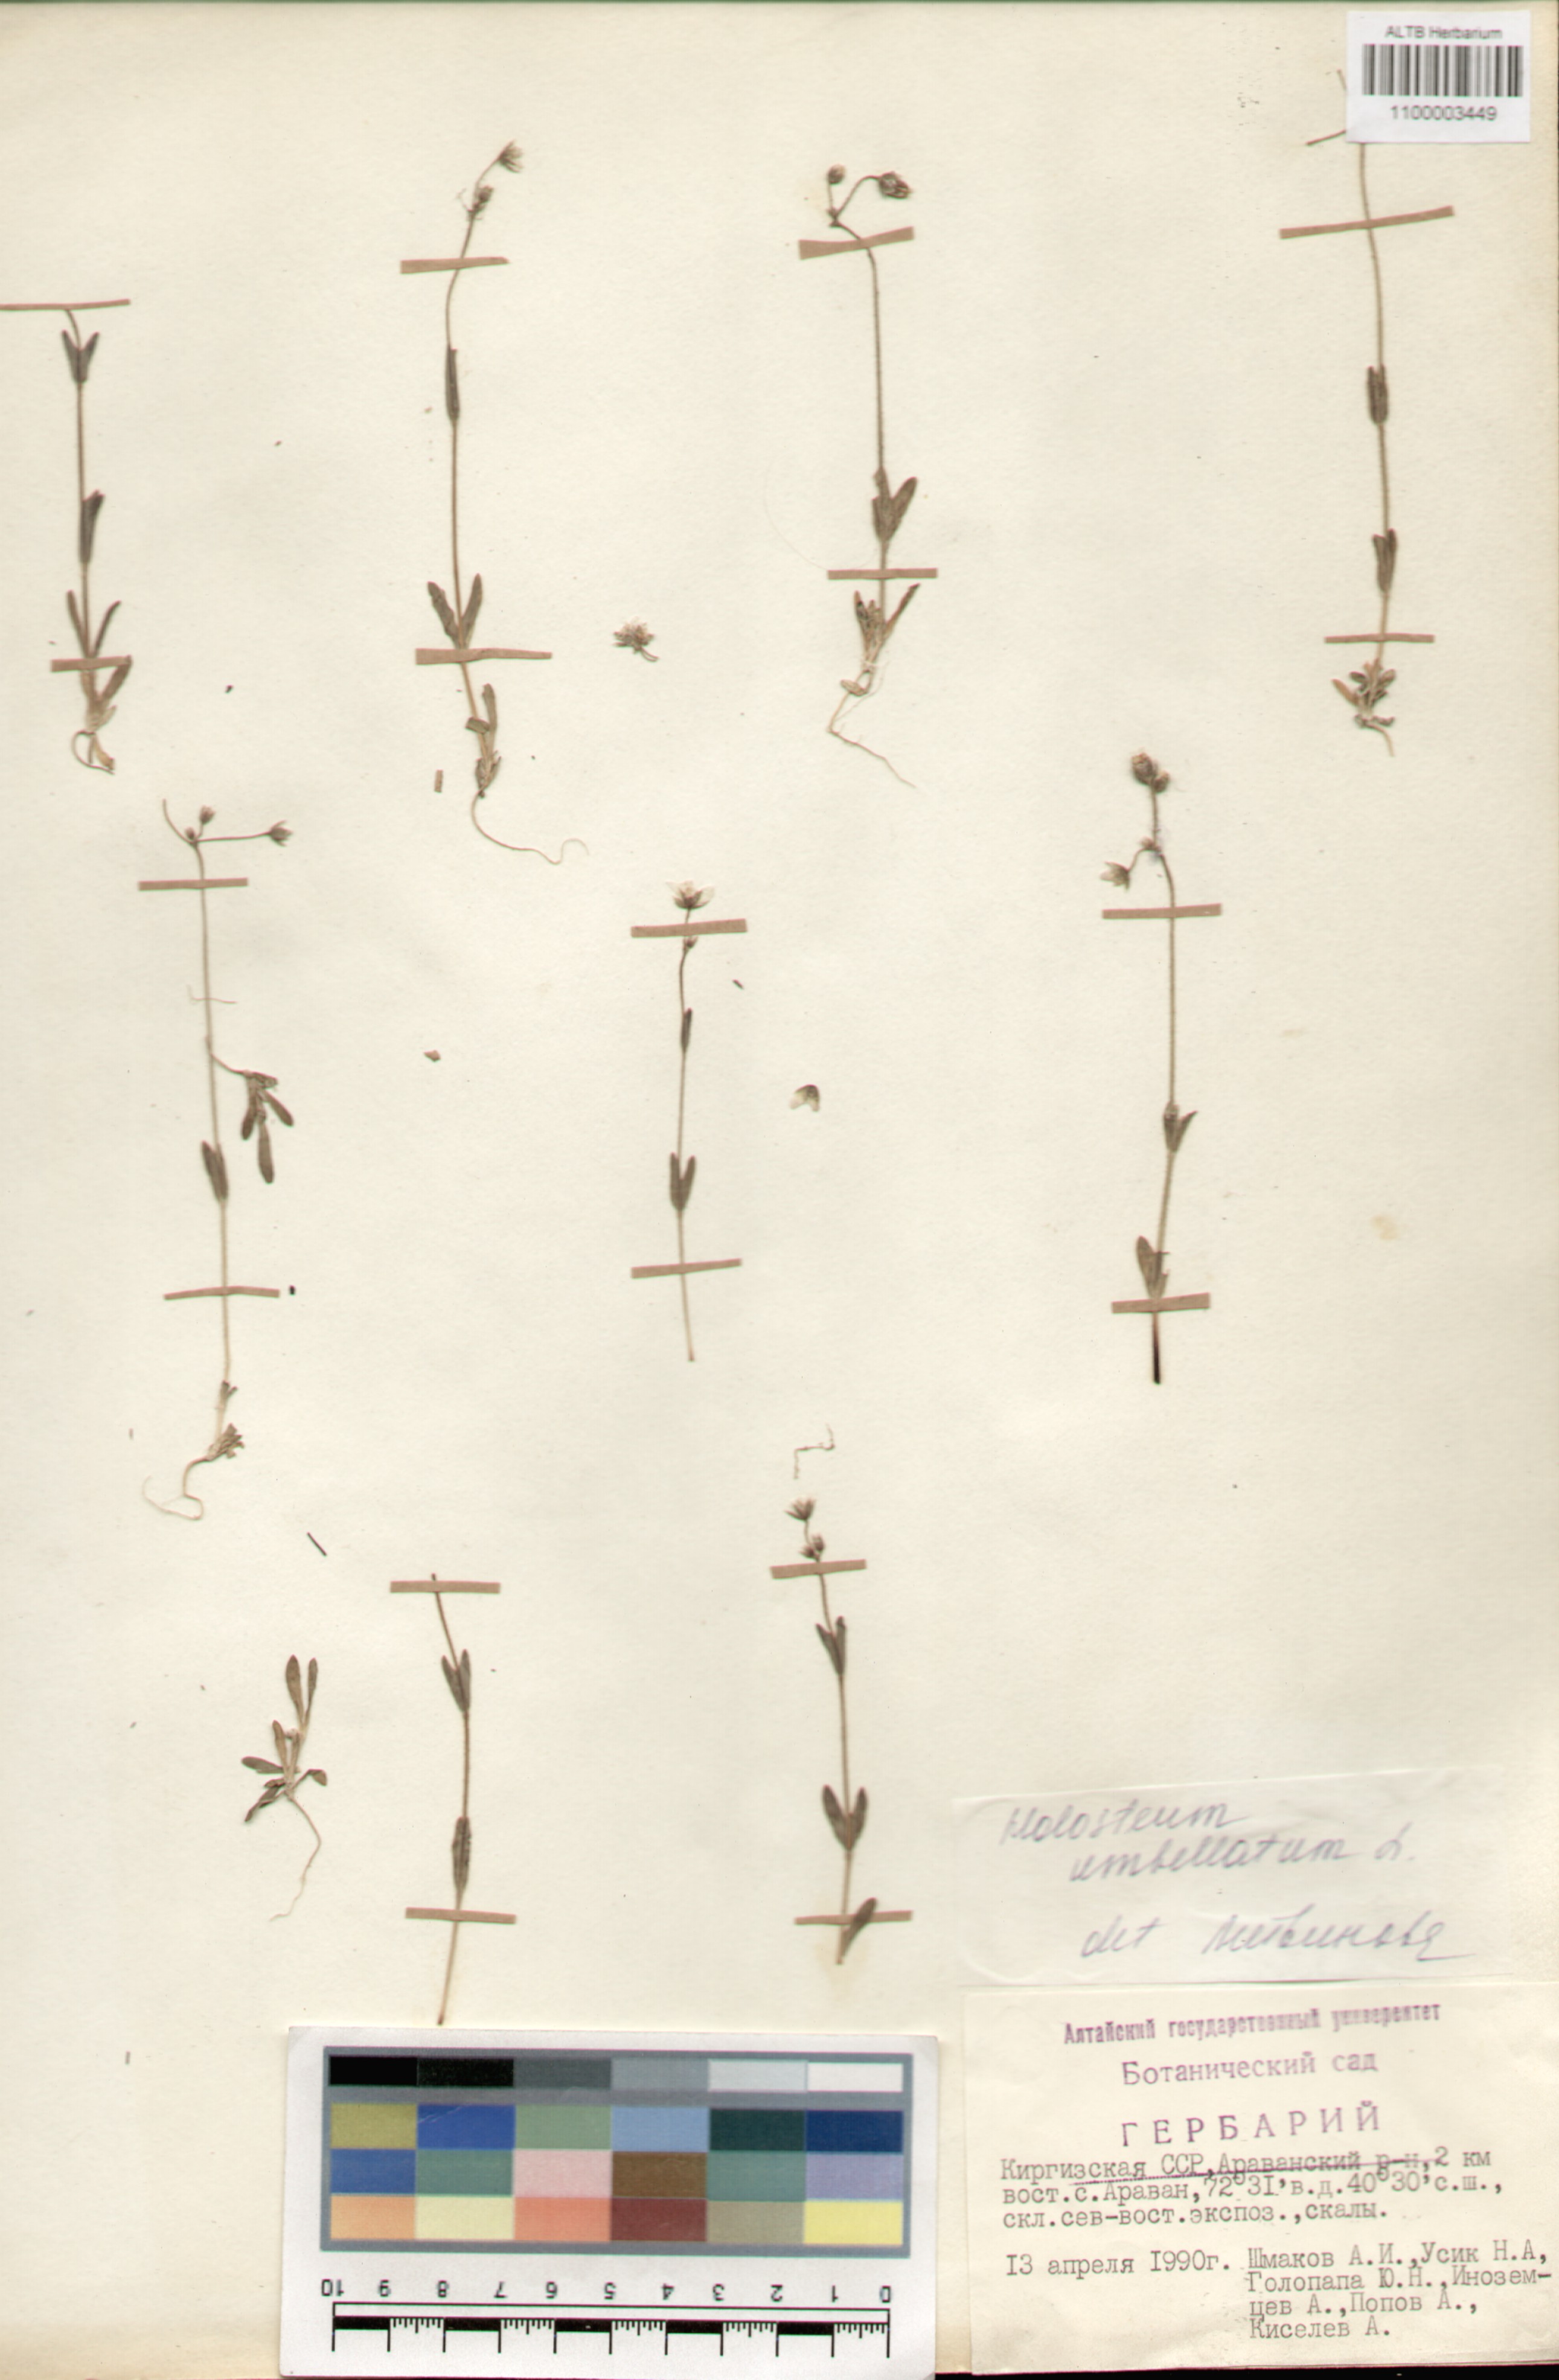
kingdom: Plantae
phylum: Tracheophyta
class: Magnoliopsida
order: Caryophyllales
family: Caryophyllaceae
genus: Holosteum
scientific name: Holosteum umbellatum
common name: Jagged chickweed
